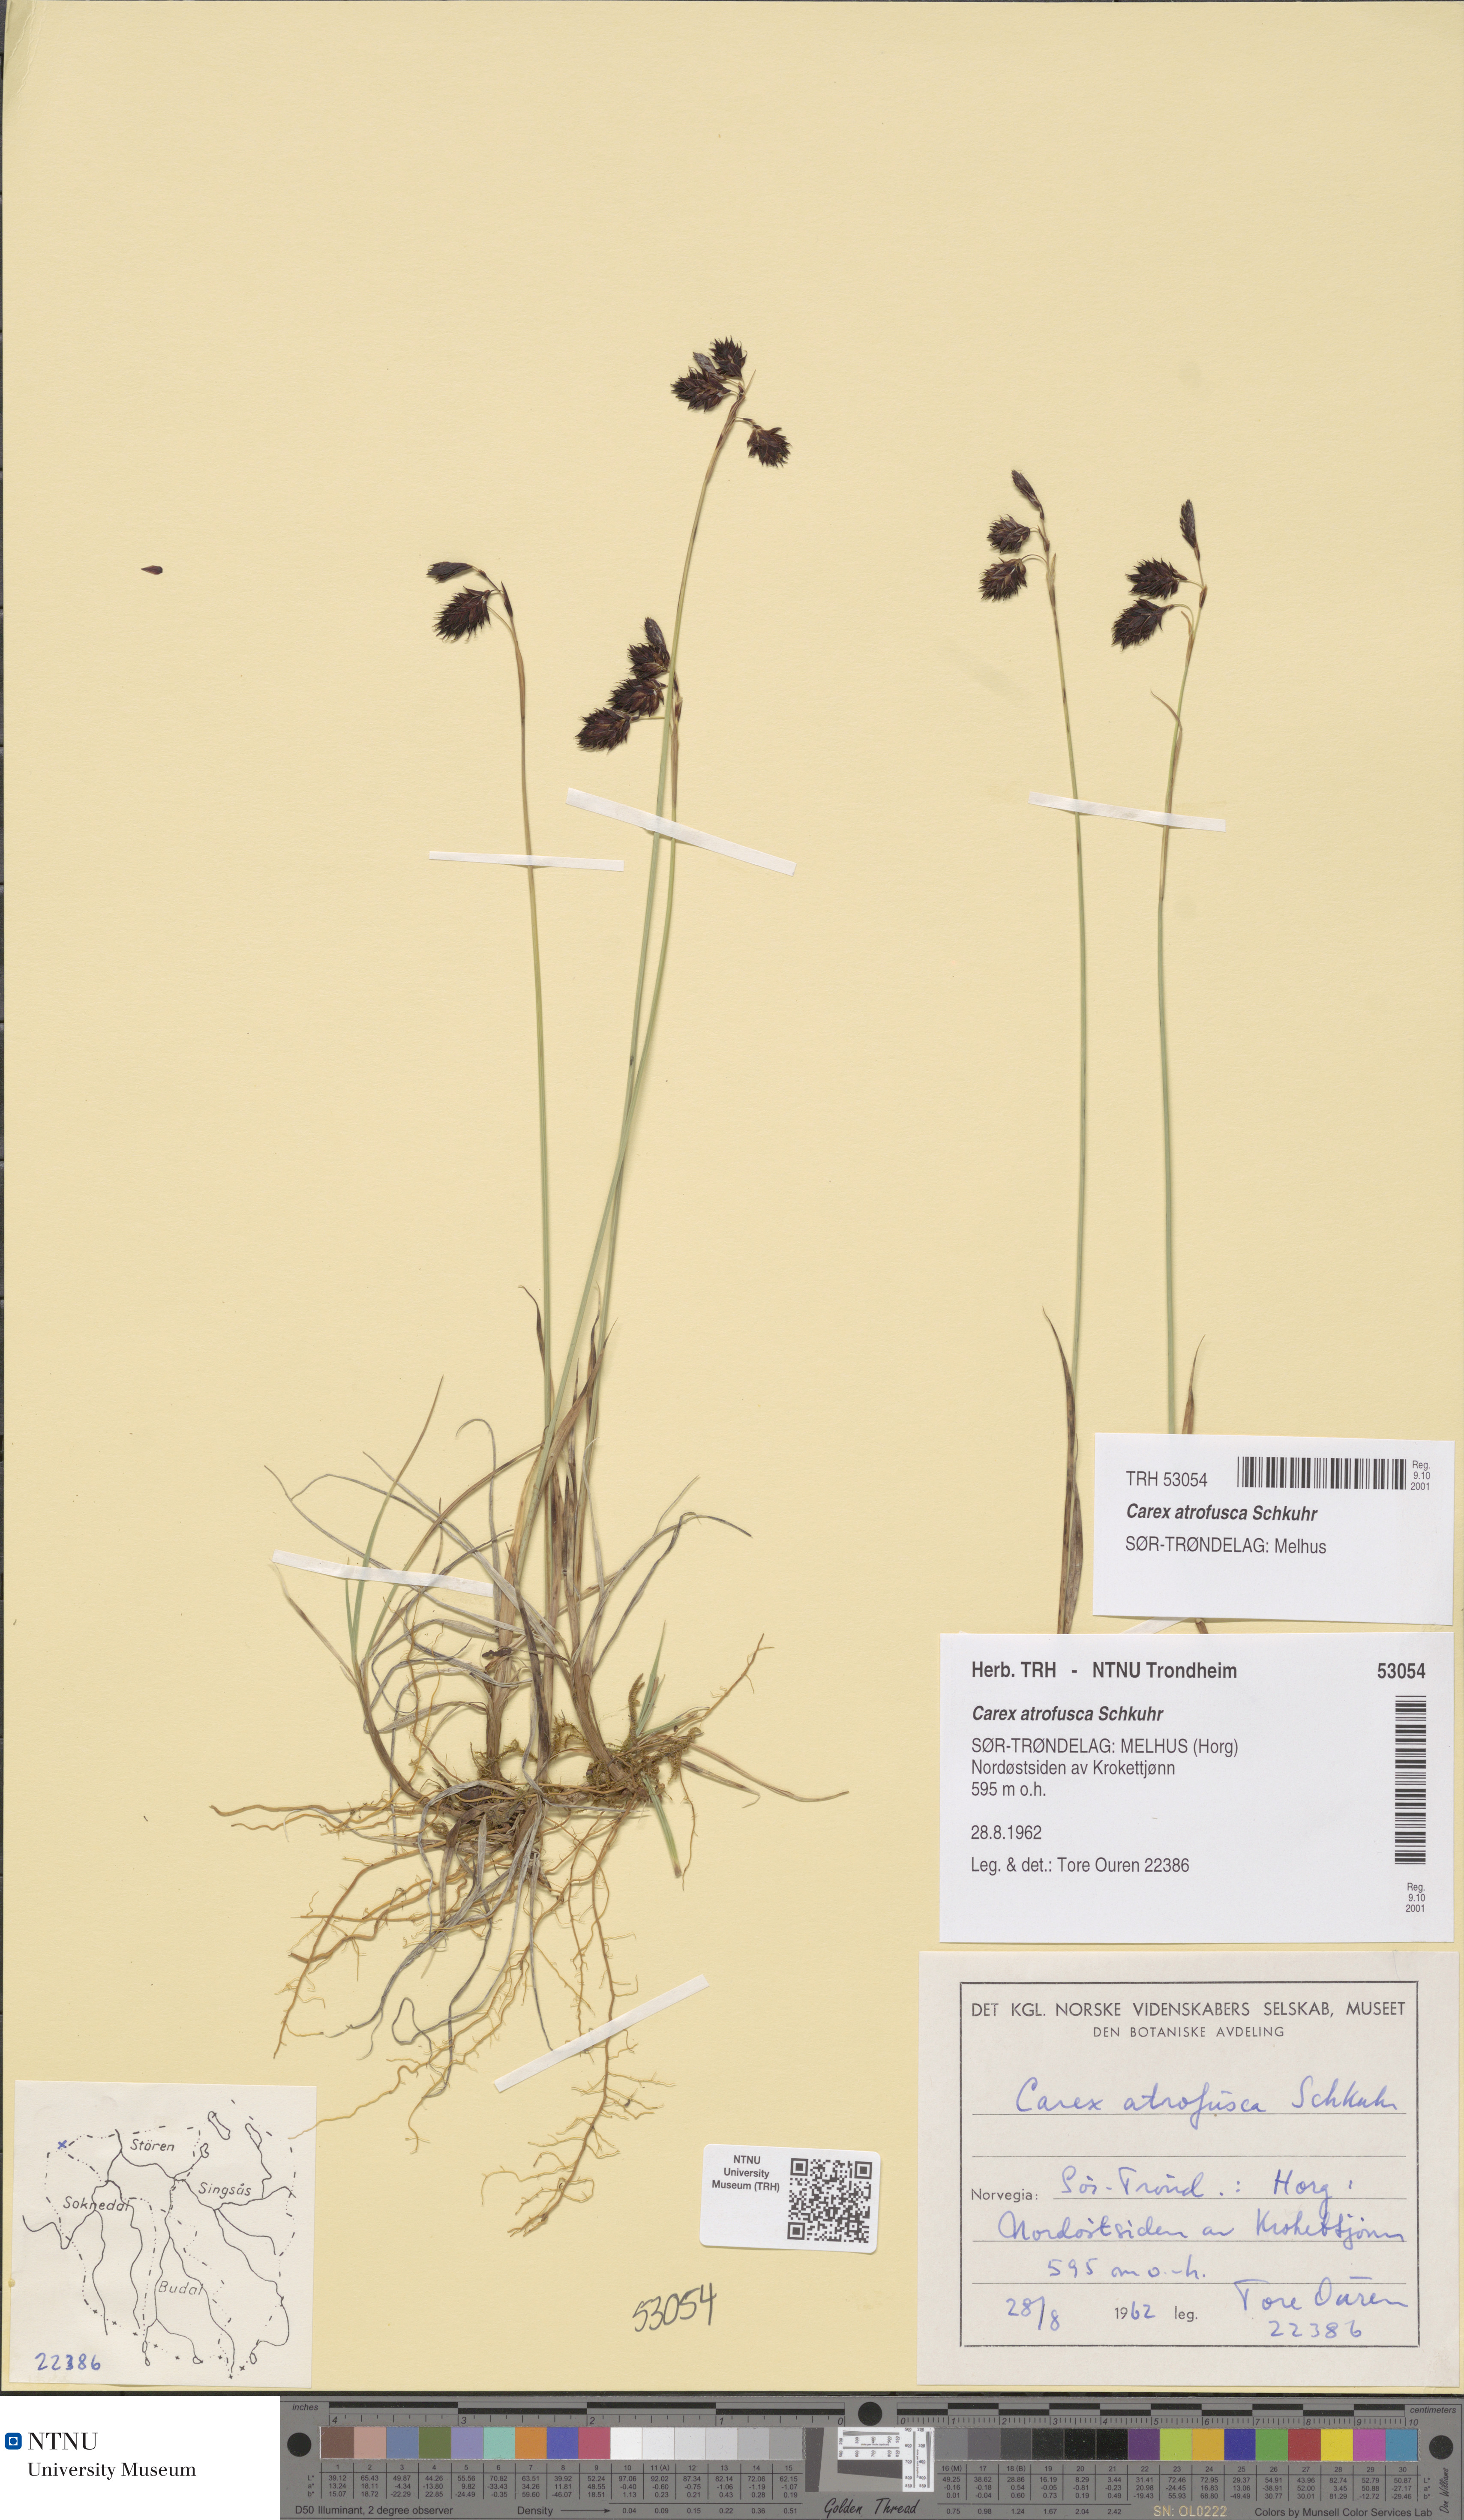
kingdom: Plantae
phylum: Tracheophyta
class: Liliopsida
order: Poales
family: Cyperaceae
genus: Carex
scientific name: Carex atrofusca
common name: Scorched alpine-sedge
